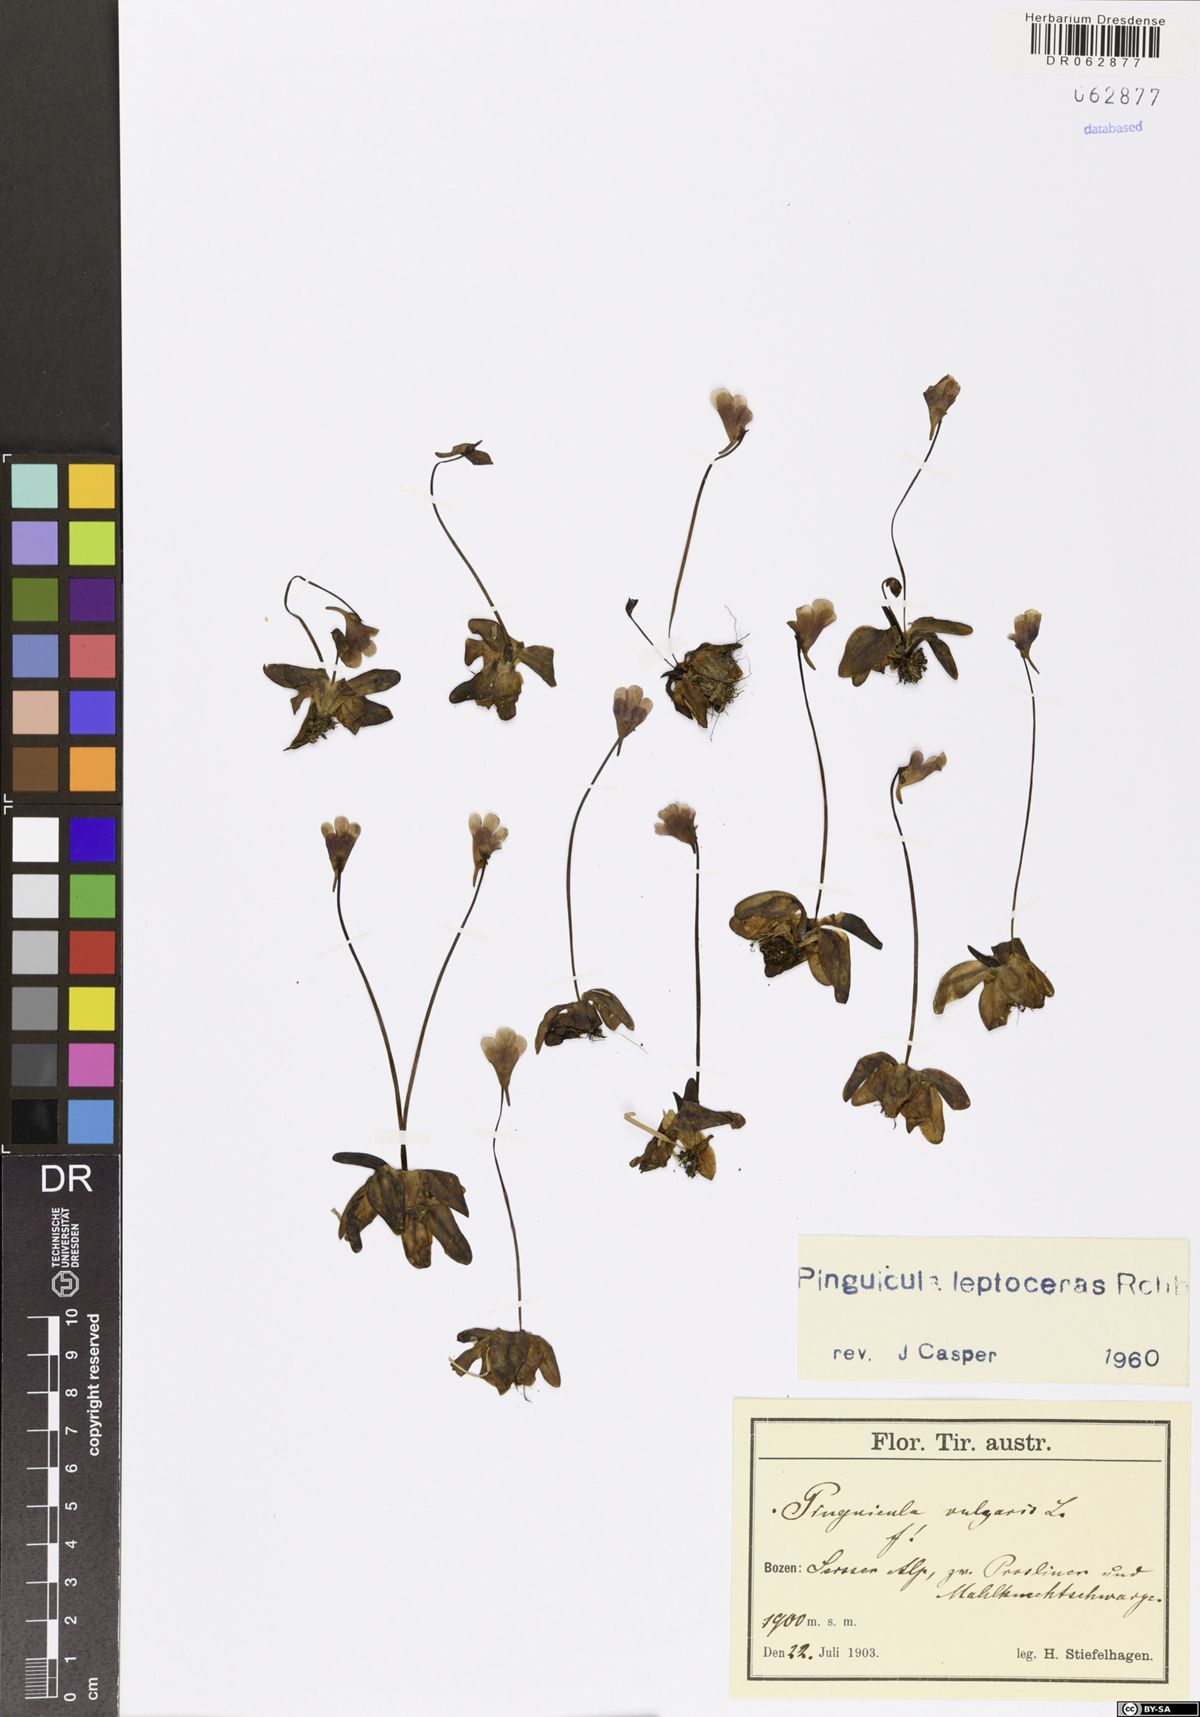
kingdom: Plantae
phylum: Tracheophyta
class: Magnoliopsida
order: Lamiales
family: Lentibulariaceae
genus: Pinguicula
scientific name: Pinguicula leptoceras
